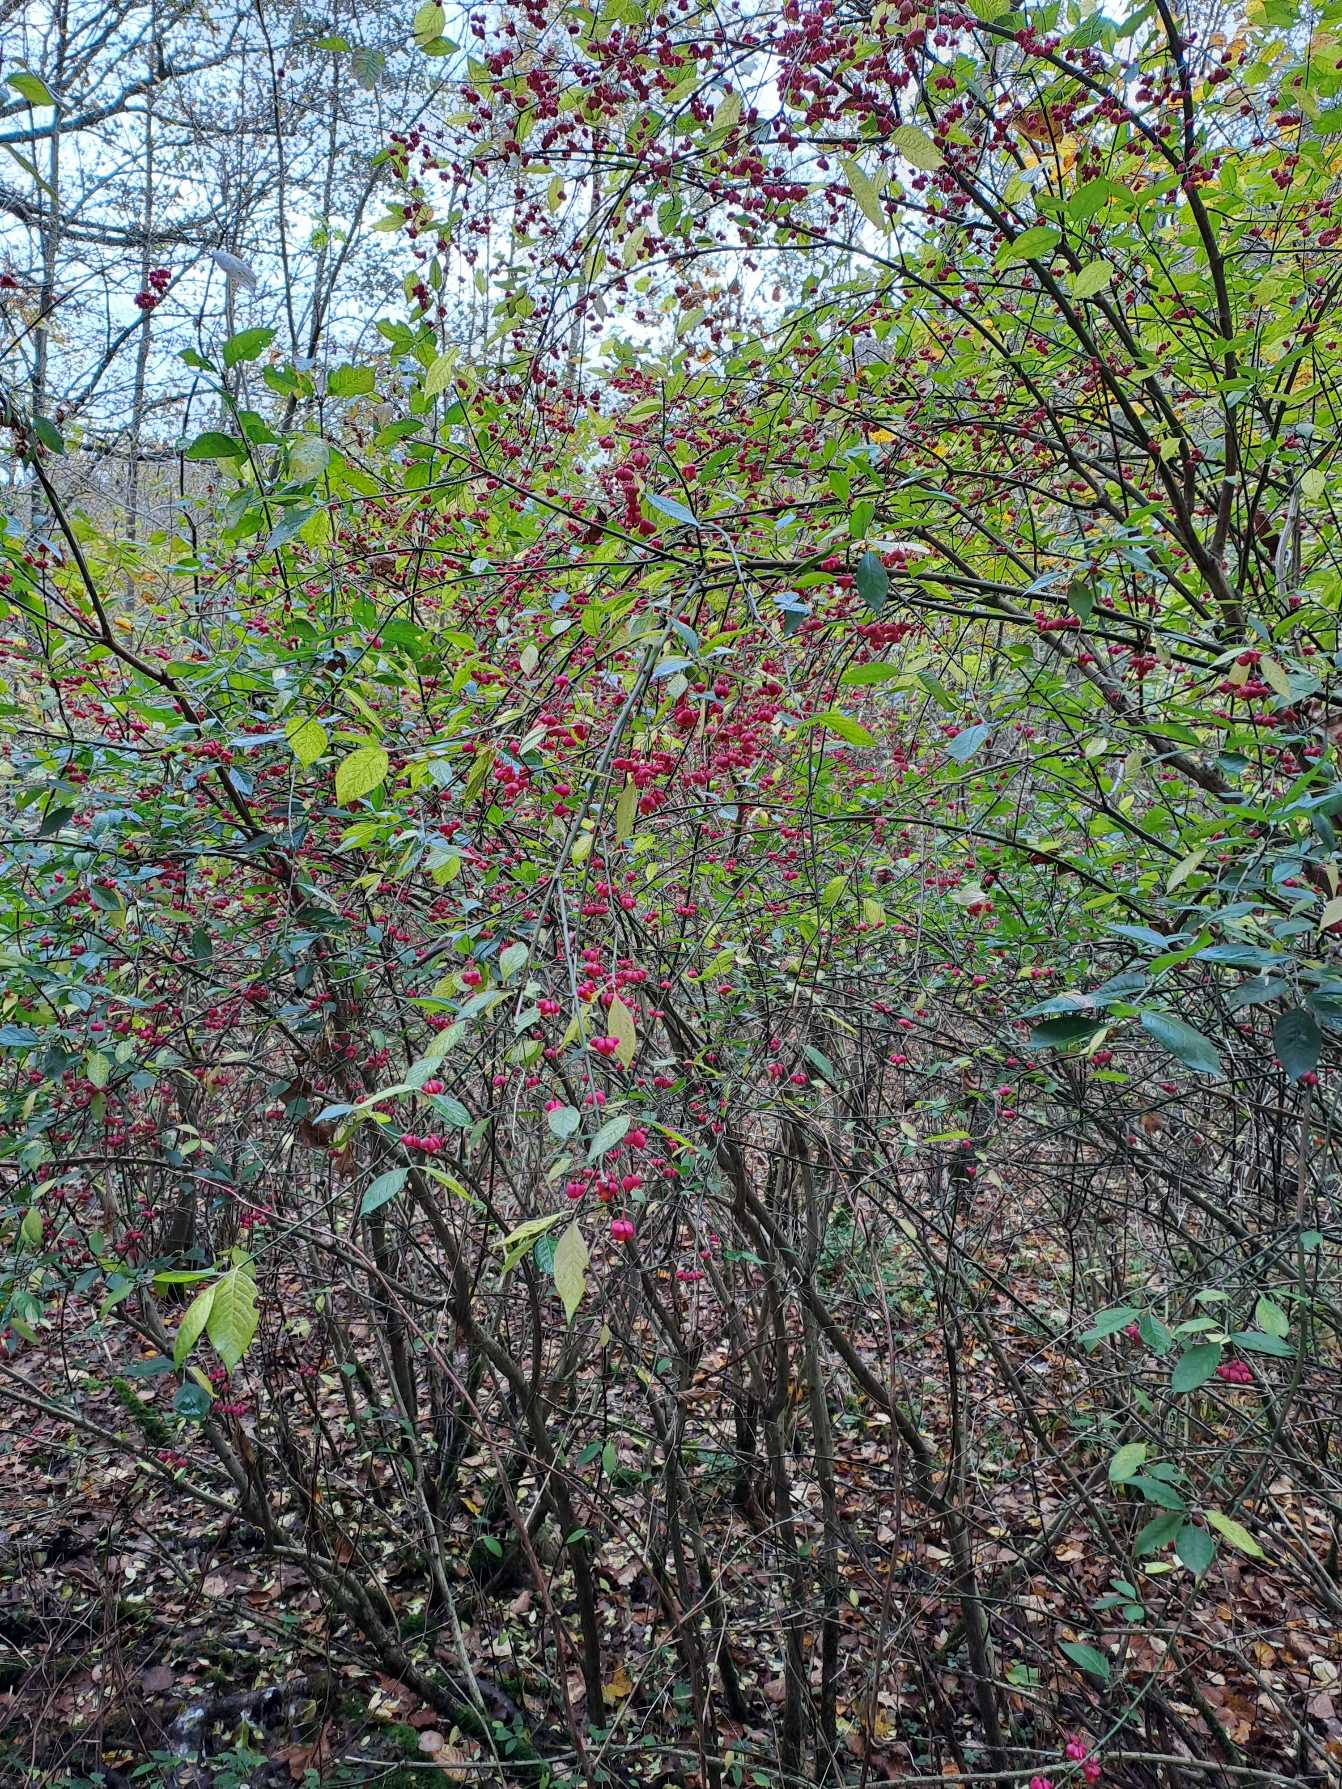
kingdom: Plantae
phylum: Tracheophyta
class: Magnoliopsida
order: Celastrales
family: Celastraceae
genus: Euonymus
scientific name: Euonymus europaeus
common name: Benved
